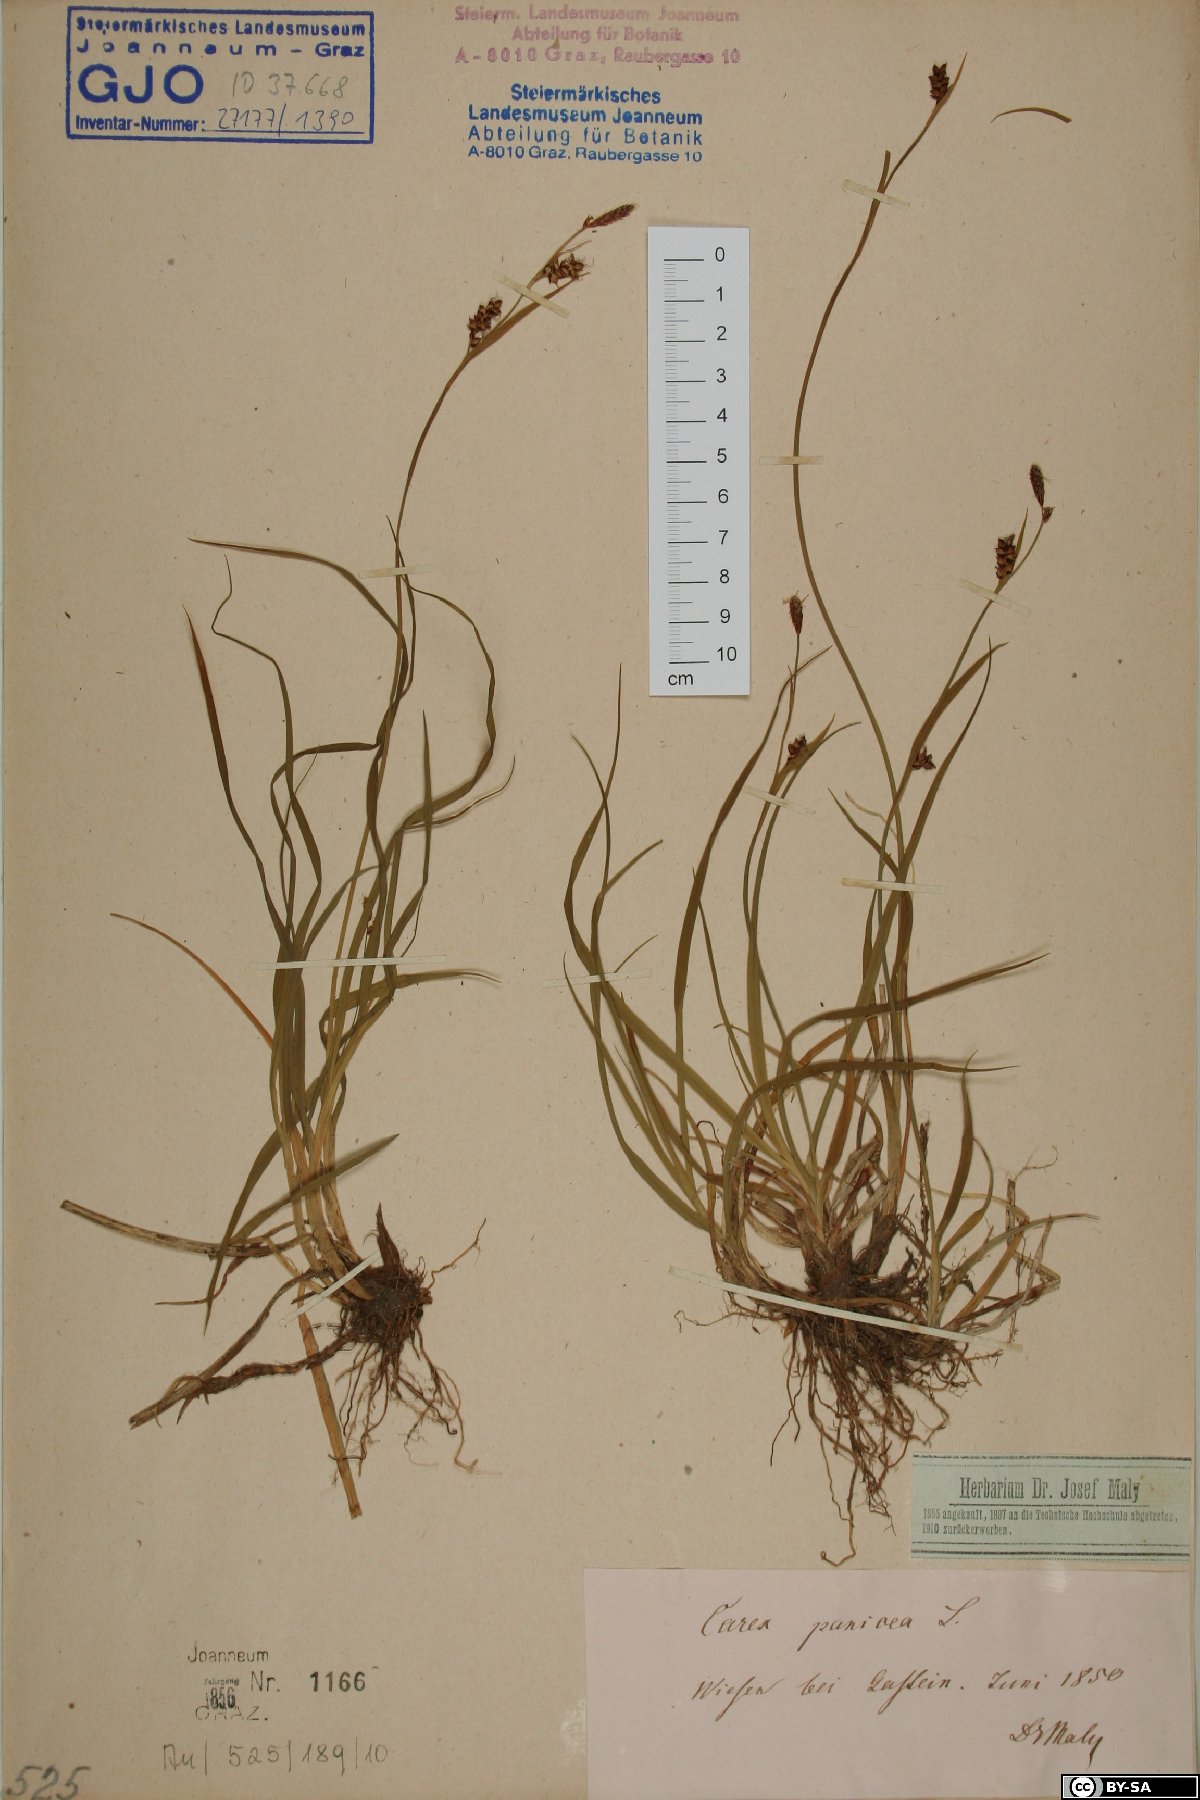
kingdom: Plantae
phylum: Tracheophyta
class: Liliopsida
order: Poales
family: Cyperaceae
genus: Carex
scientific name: Carex panicea
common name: Carnation sedge
